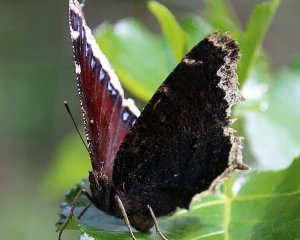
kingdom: Animalia
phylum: Arthropoda
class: Insecta
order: Lepidoptera
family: Nymphalidae
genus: Nymphalis
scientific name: Nymphalis antiopa
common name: Mourning Cloak
